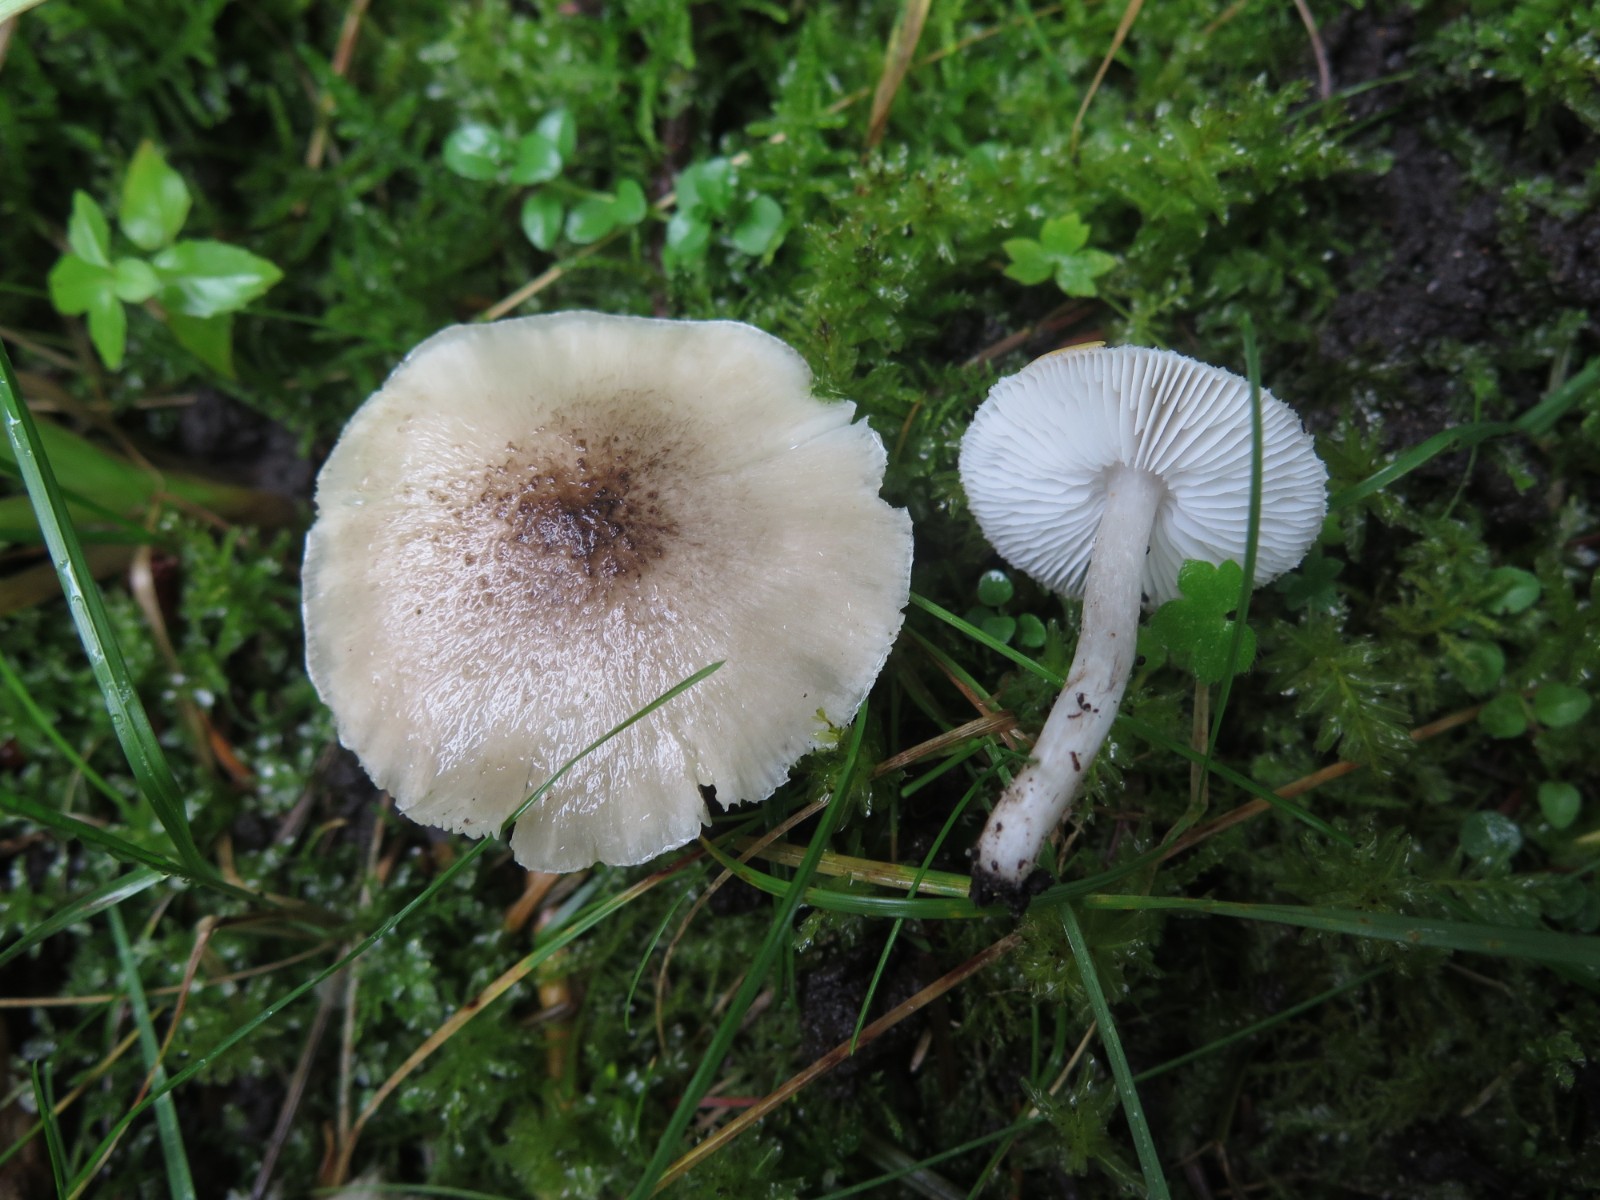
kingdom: Fungi
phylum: Basidiomycota
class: Agaricomycetes
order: Agaricales
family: Tricholomataceae
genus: Tricholoma
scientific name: Tricholoma argyraceum
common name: slør-ridderhat
